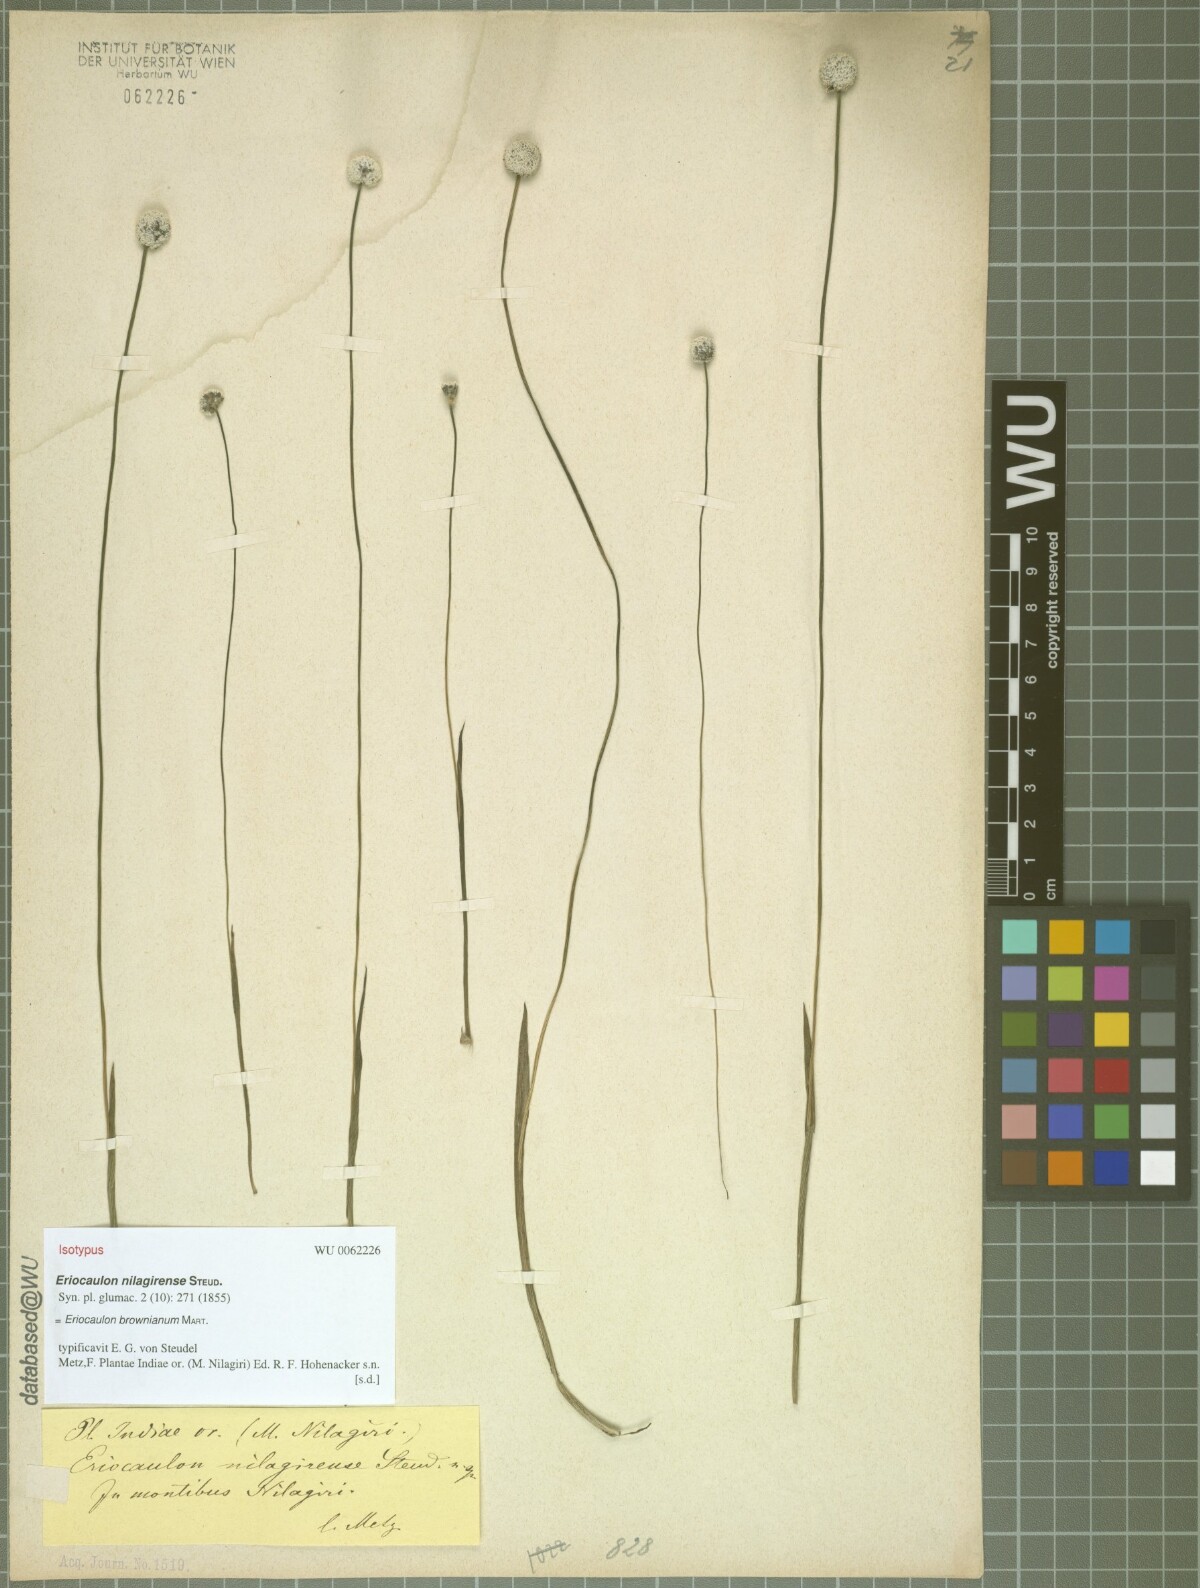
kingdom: Plantae
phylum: Tracheophyta
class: Liliopsida
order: Poales
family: Eriocaulaceae
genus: Eriocaulon
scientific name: Eriocaulon brownianum
